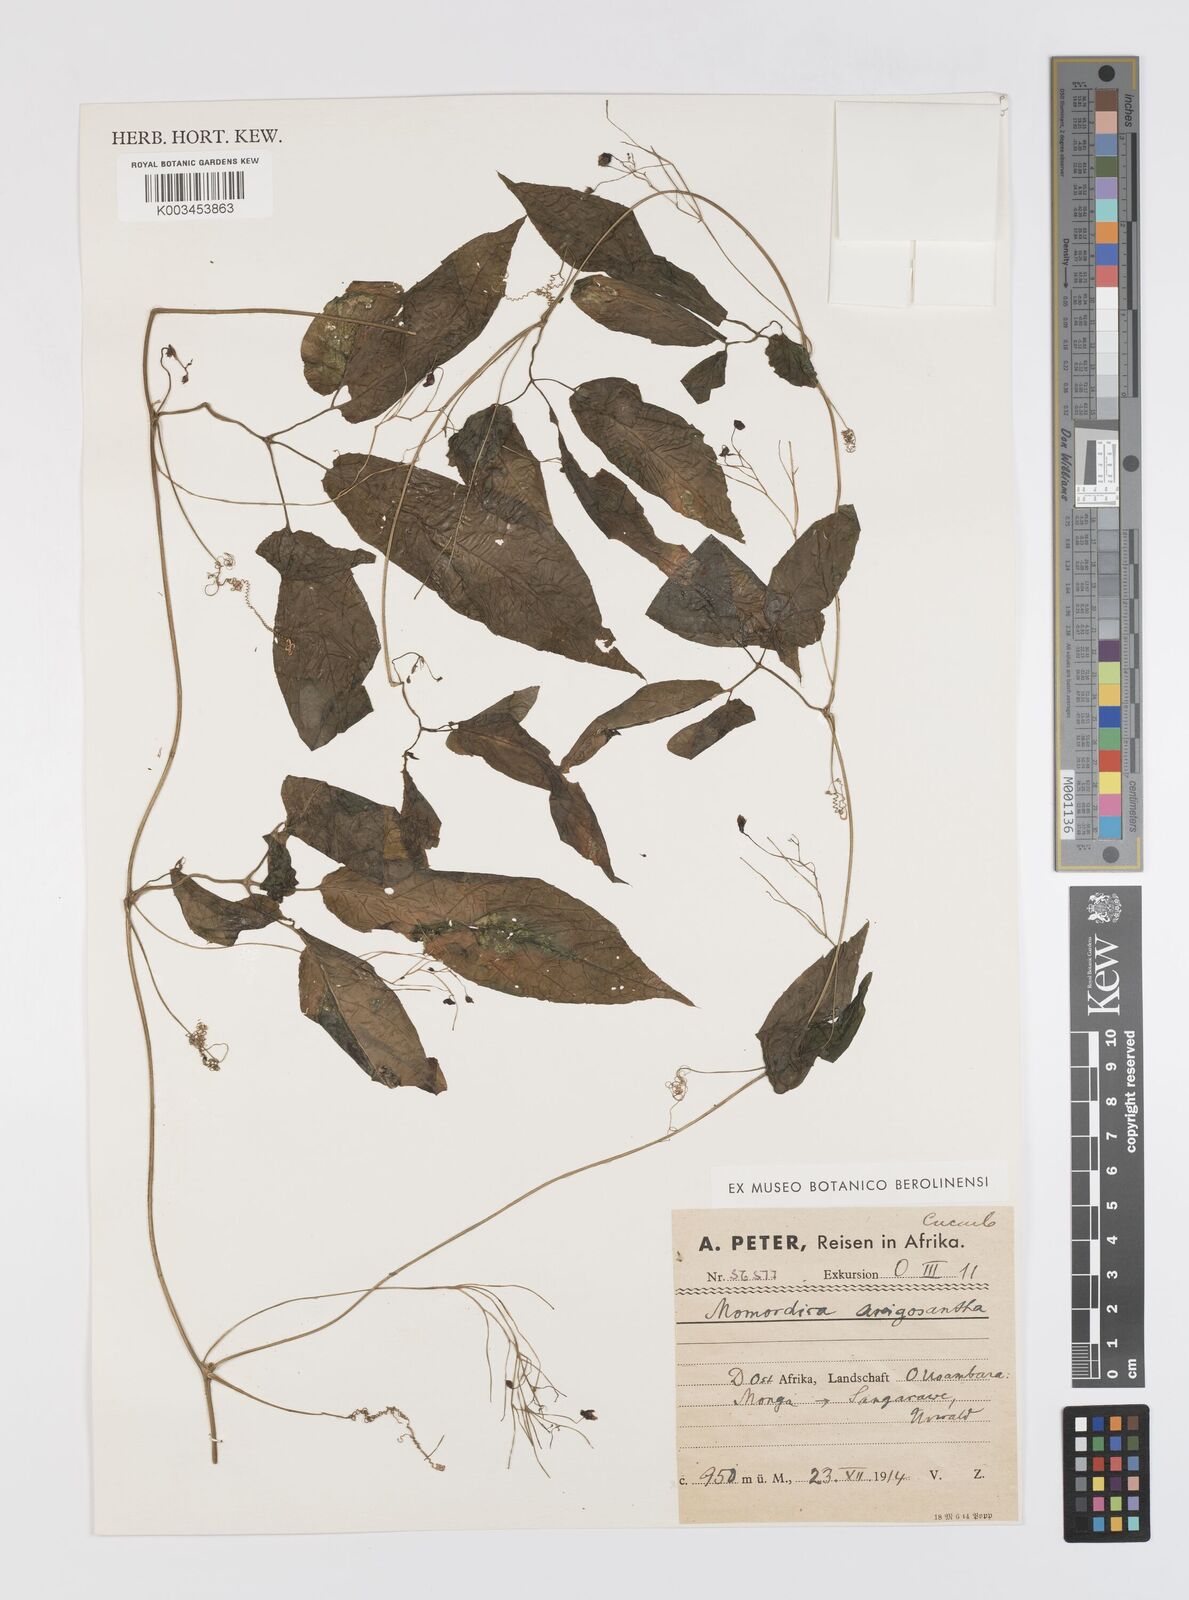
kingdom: Plantae
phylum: Tracheophyta
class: Magnoliopsida
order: Cucurbitales
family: Cucurbitaceae
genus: Momordica
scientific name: Momordica anigosantha
